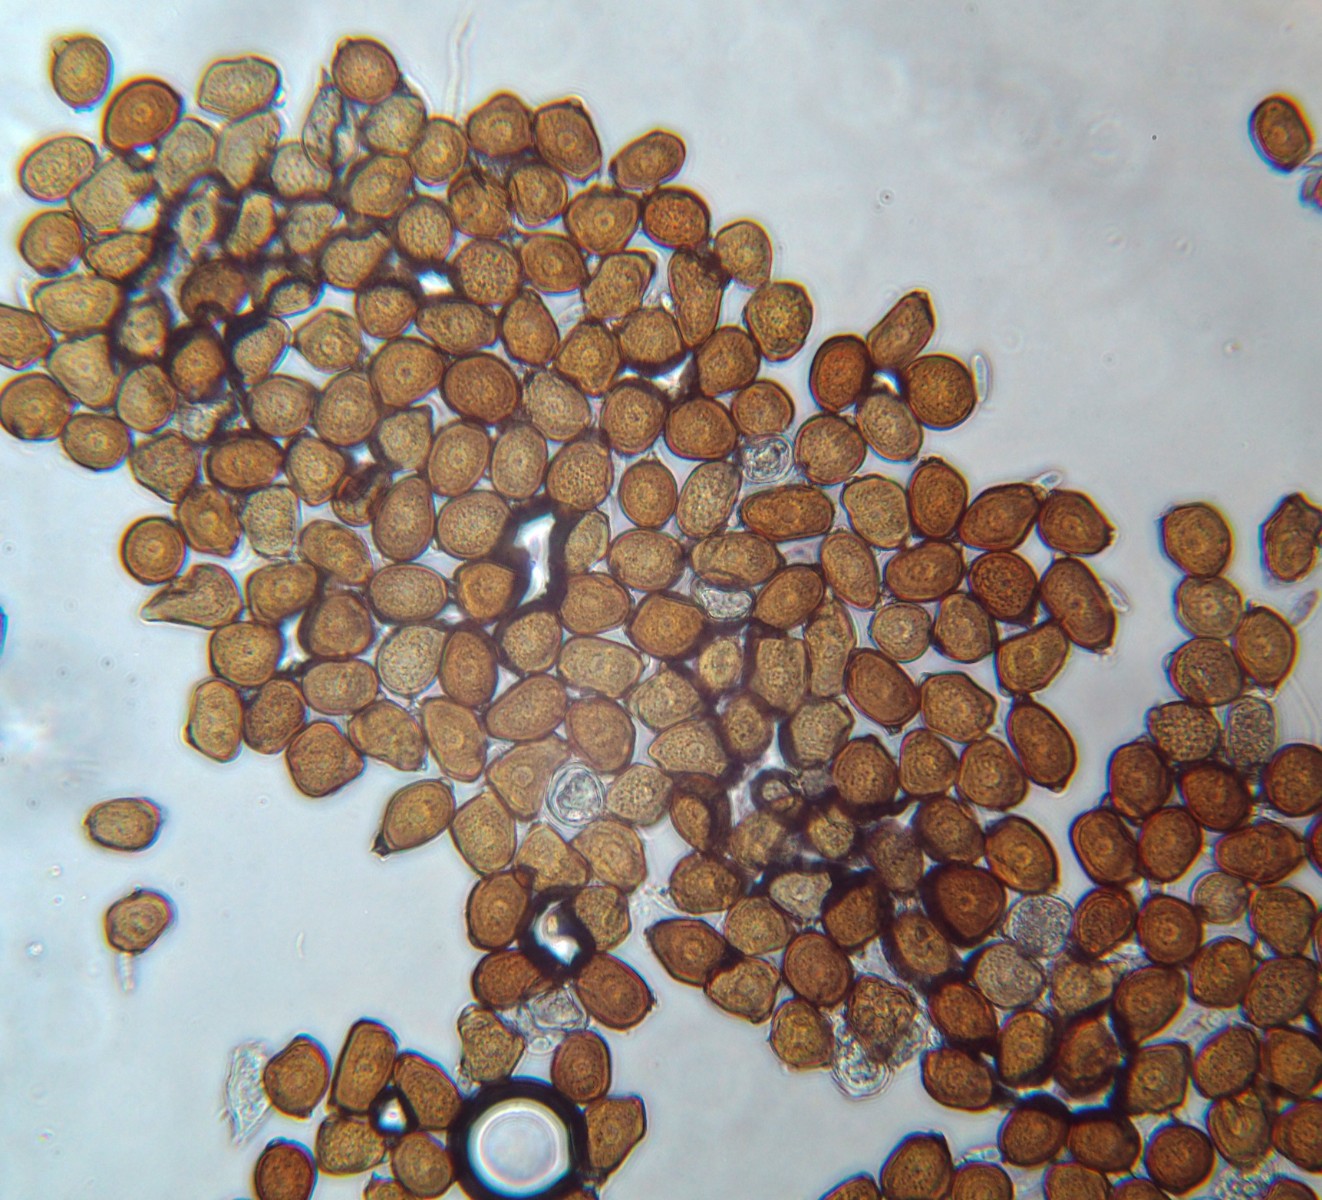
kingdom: Fungi
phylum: Basidiomycota
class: Pucciniomycetes
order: Pucciniales
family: Pucciniaceae
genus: Uromyces
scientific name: Uromyces rumicis
